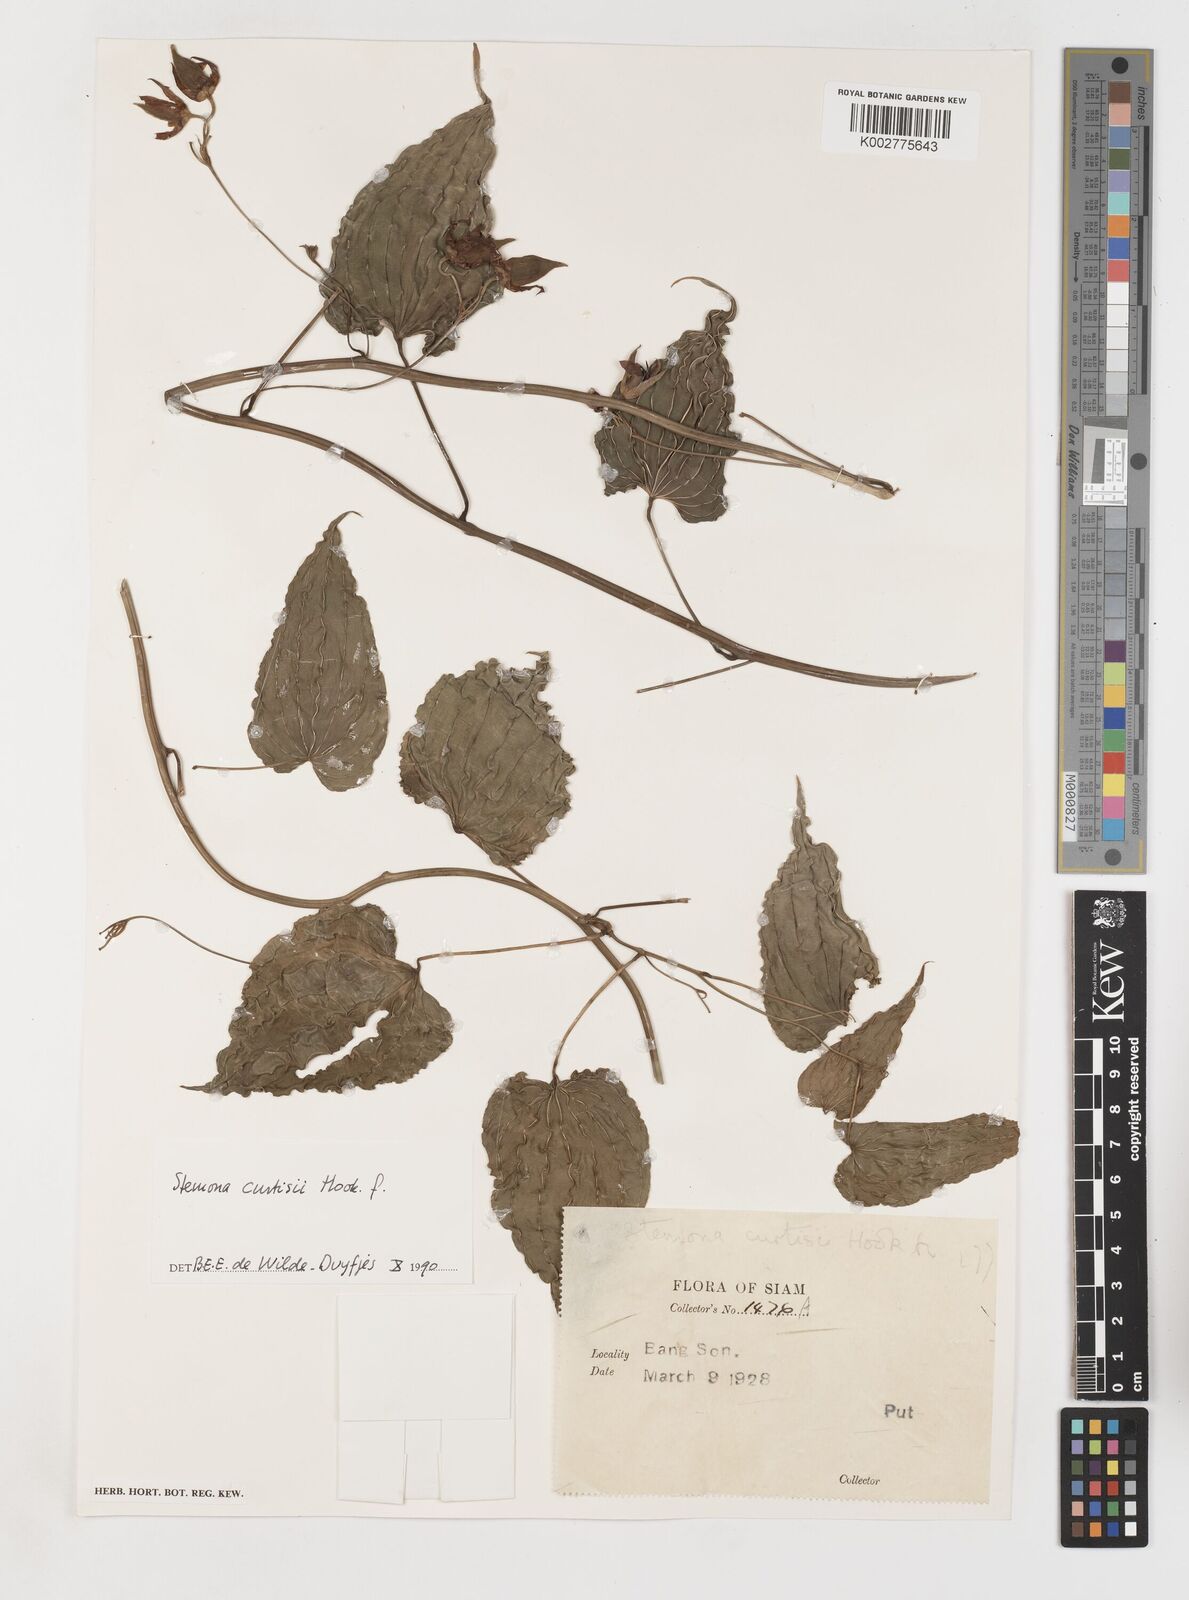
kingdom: Plantae
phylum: Tracheophyta
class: Liliopsida
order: Pandanales
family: Stemonaceae
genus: Stemona
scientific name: Stemona curtisii
